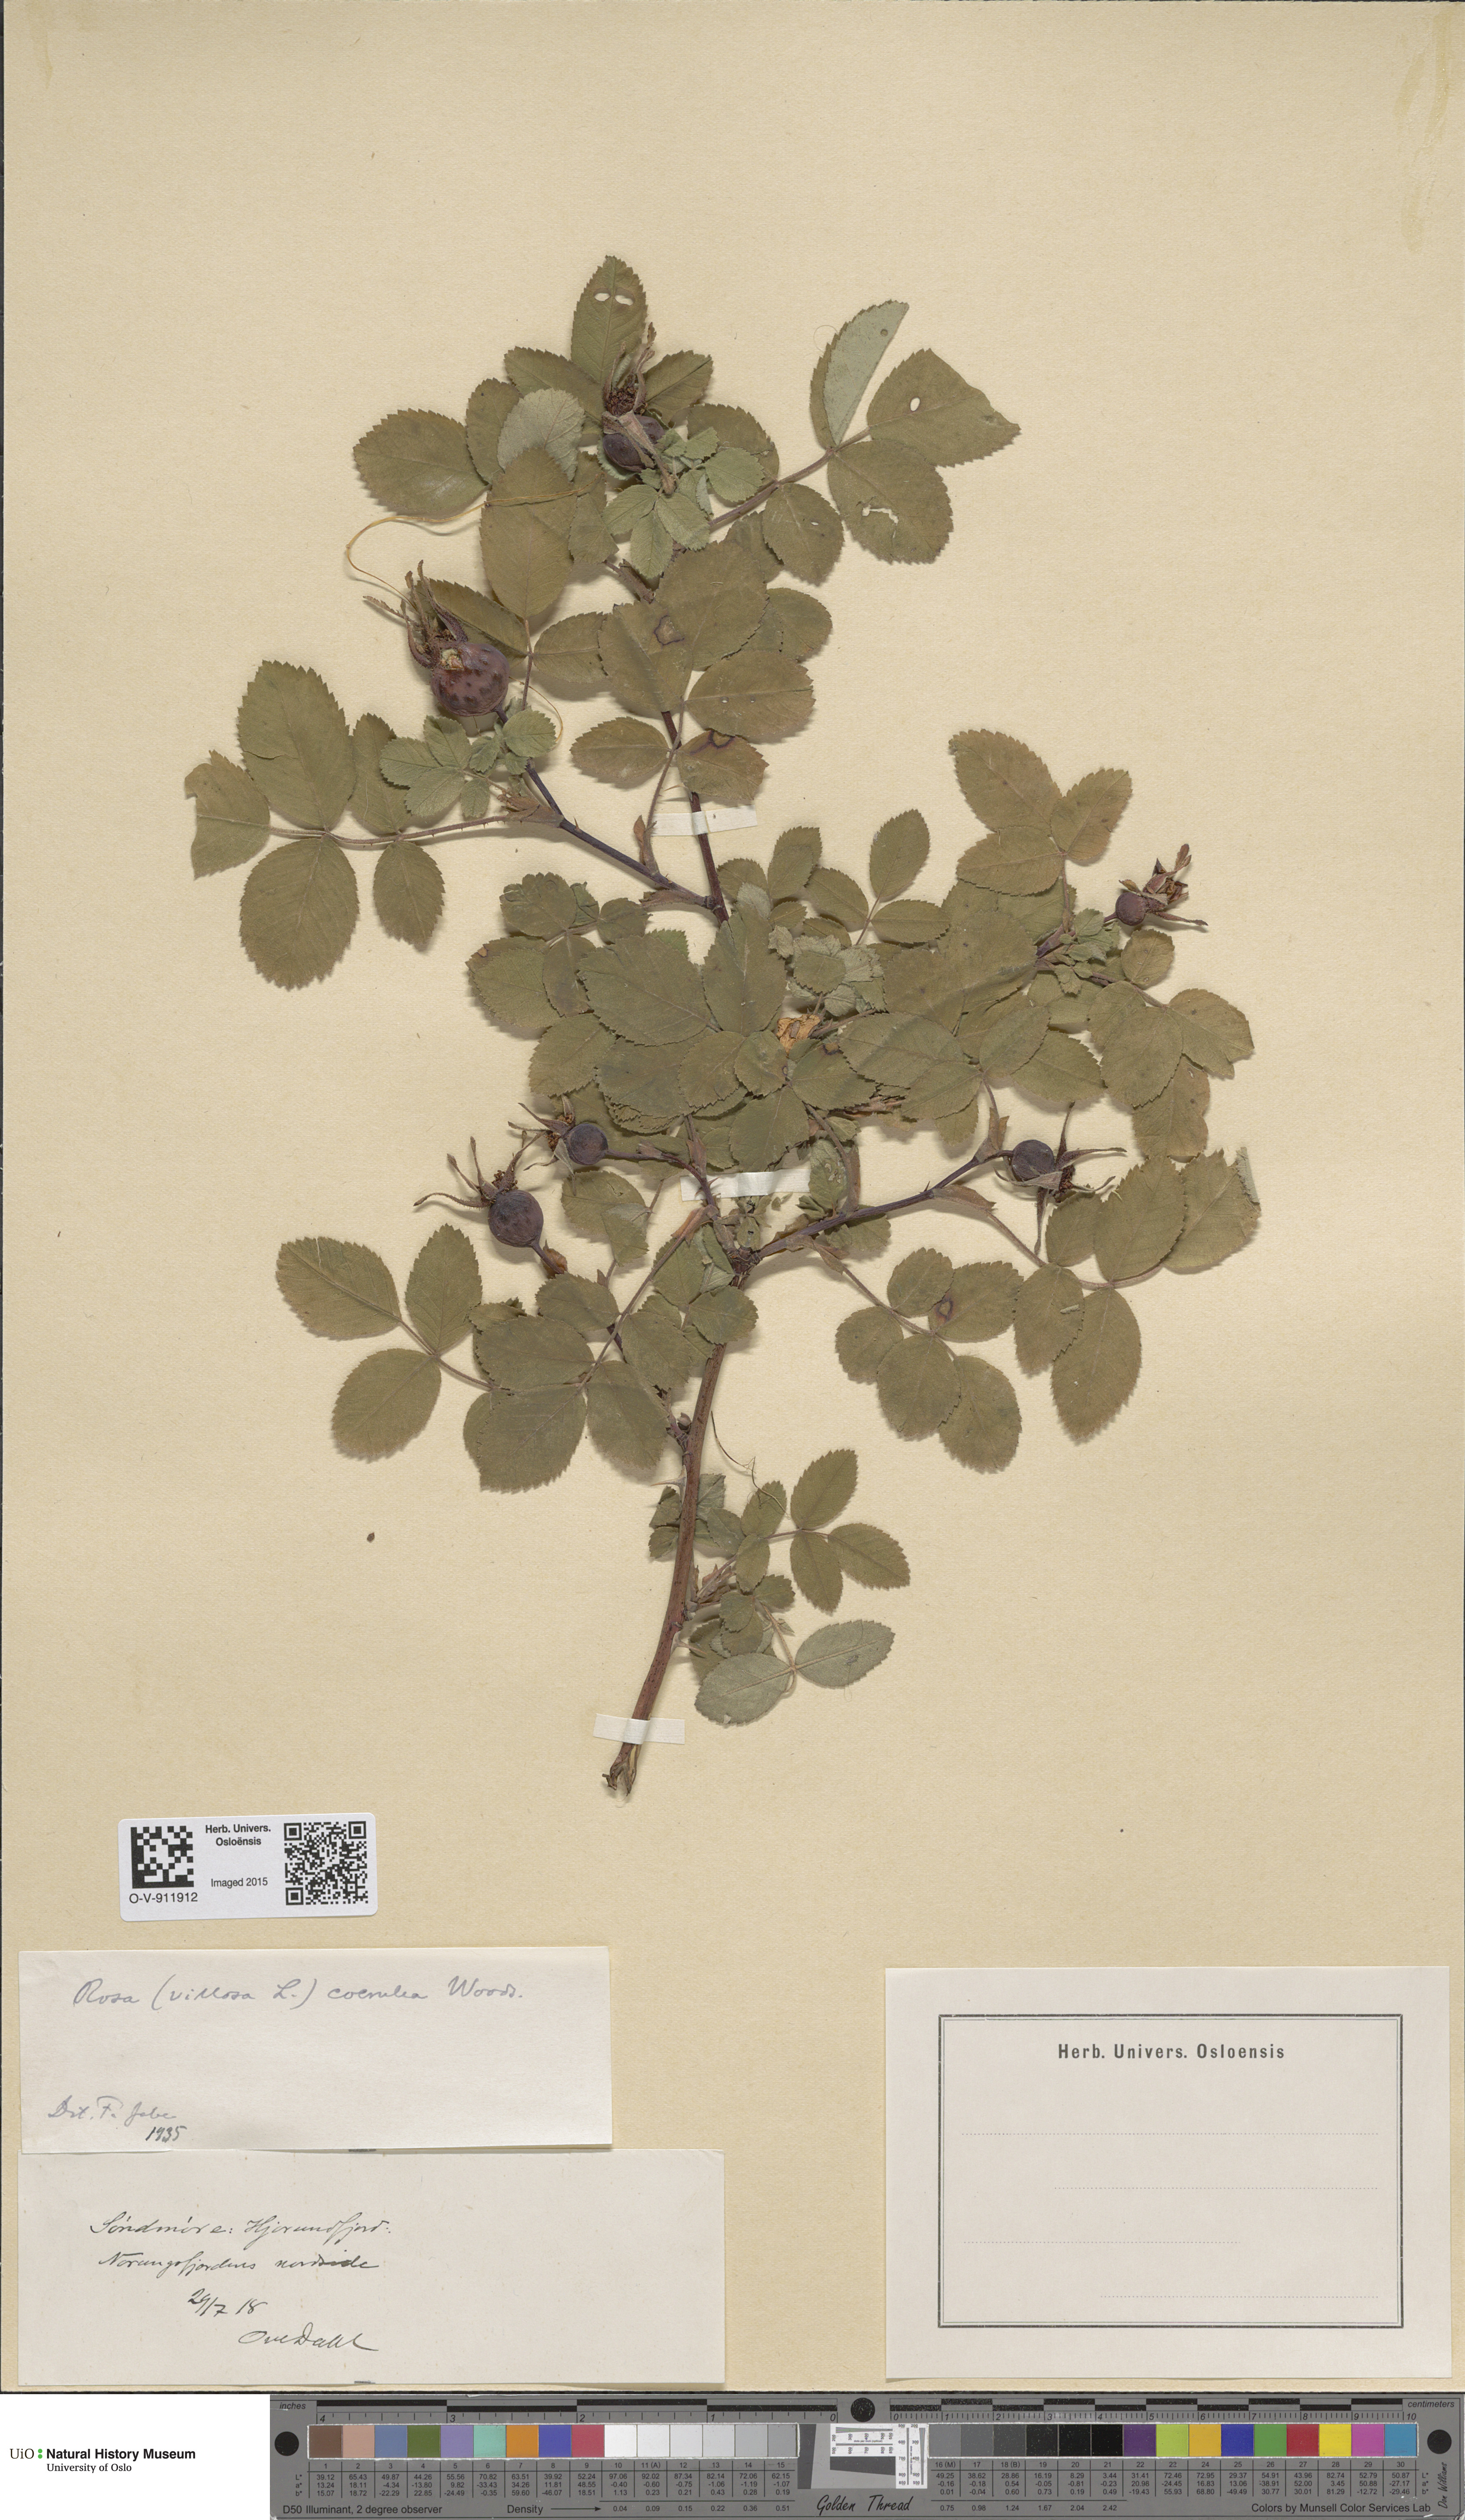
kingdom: Plantae
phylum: Tracheophyta
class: Magnoliopsida
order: Rosales
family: Rosaceae
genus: Rosa
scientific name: Rosa mollis
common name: Rose
